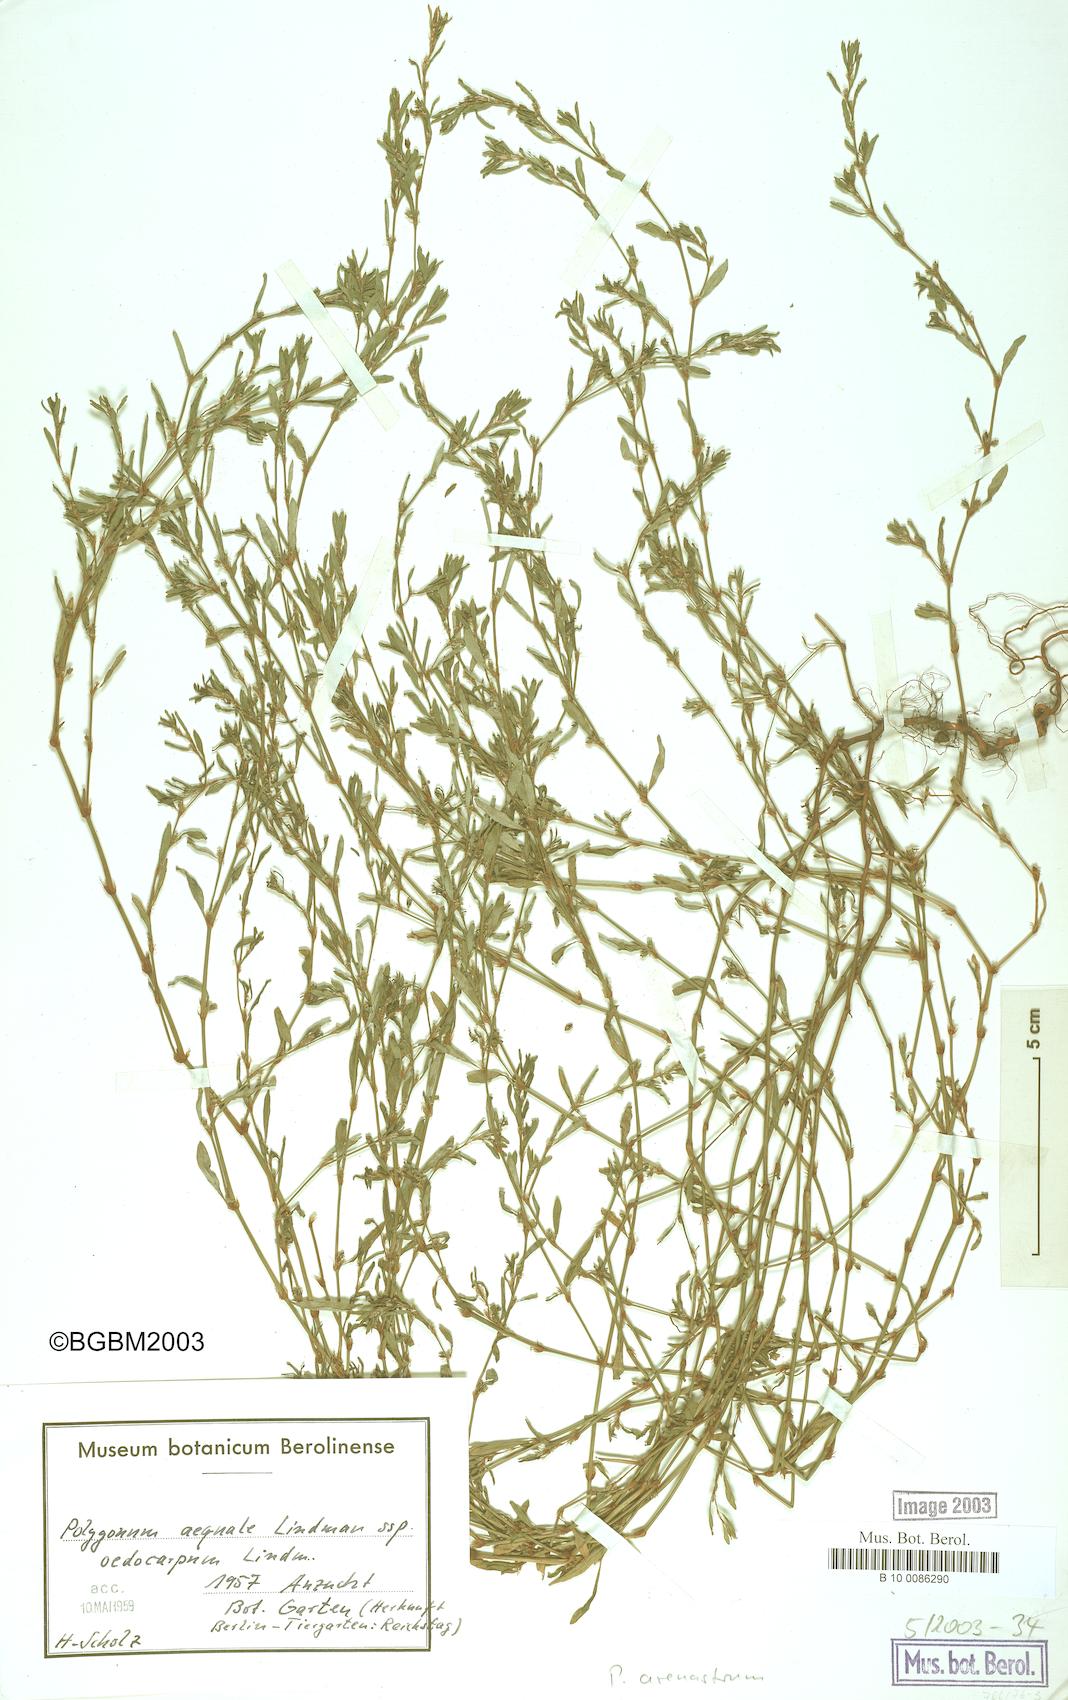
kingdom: Plantae
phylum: Tracheophyta
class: Magnoliopsida
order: Caryophyllales
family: Polygonaceae
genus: Polygonum
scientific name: Polygonum arenastrum
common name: Equal-leaved knotgrass
